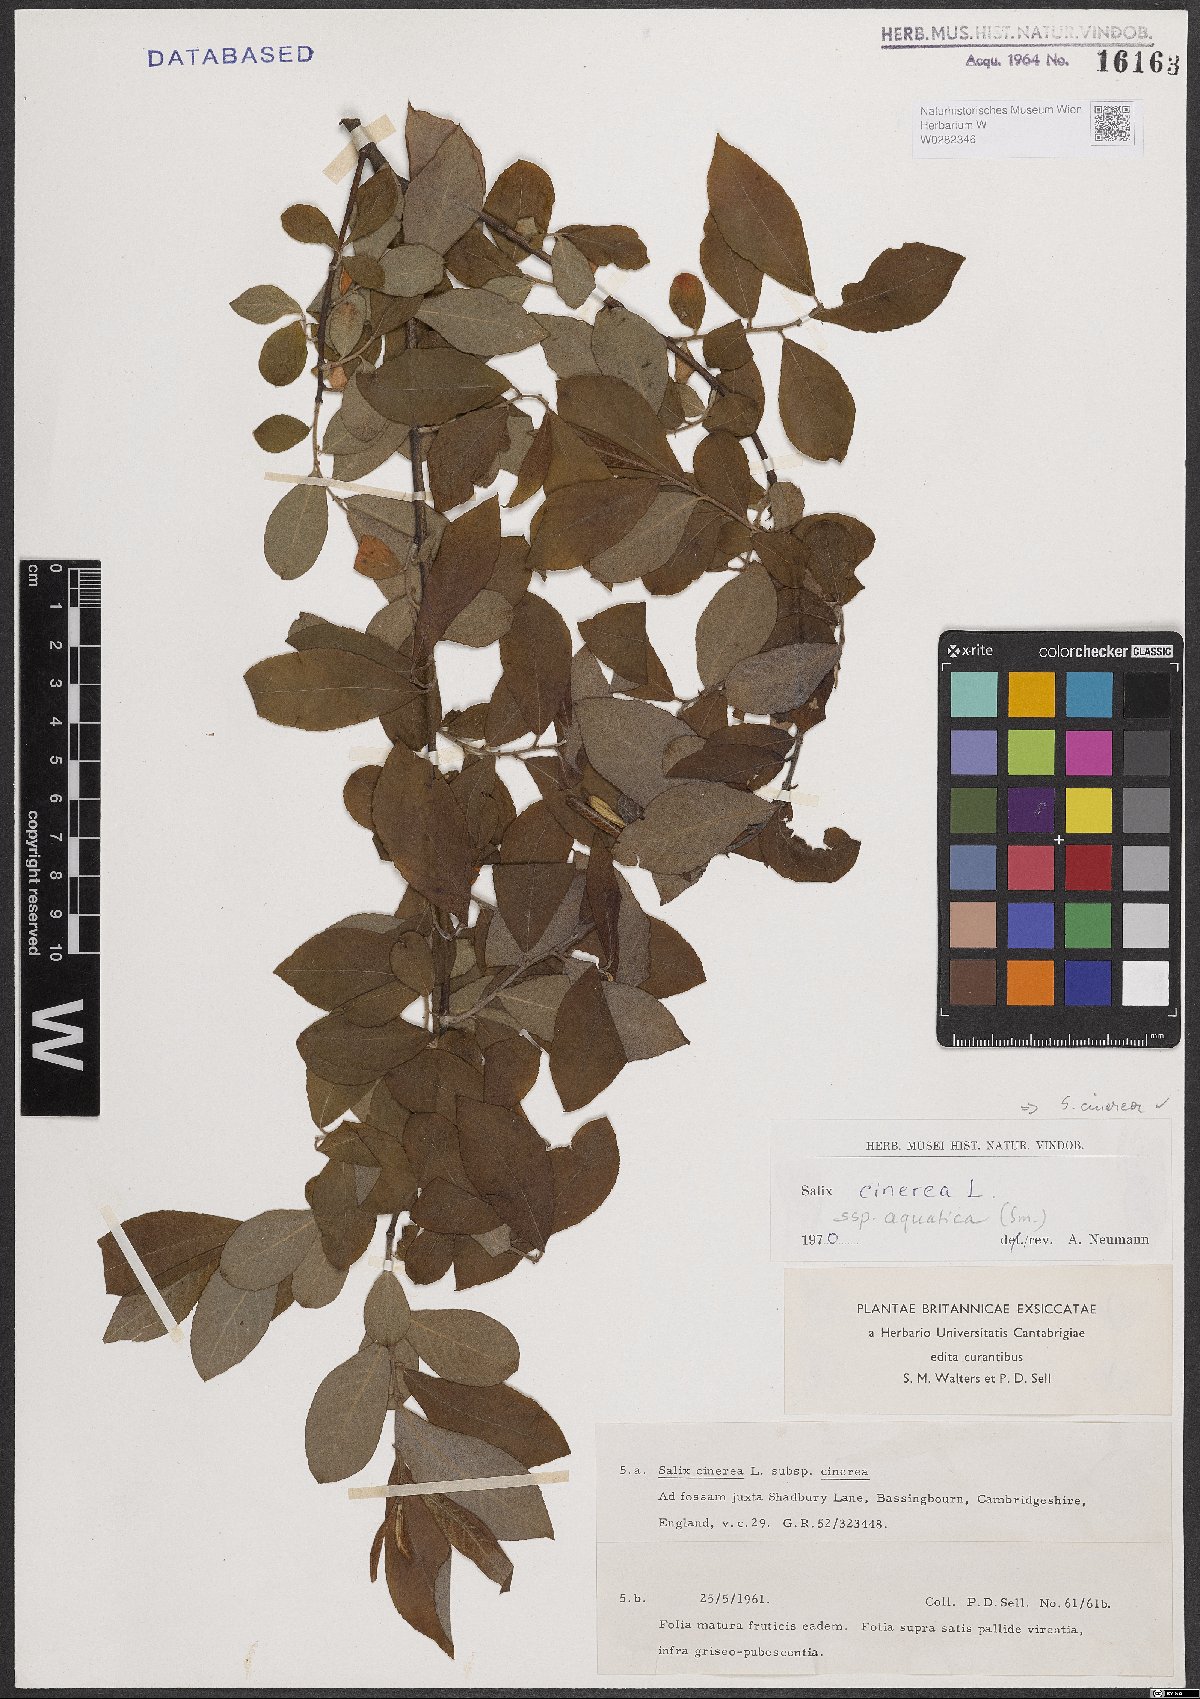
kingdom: Plantae
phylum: Tracheophyta
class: Magnoliopsida
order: Malpighiales
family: Salicaceae
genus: Salix
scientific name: Salix cinerea
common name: Common sallow
